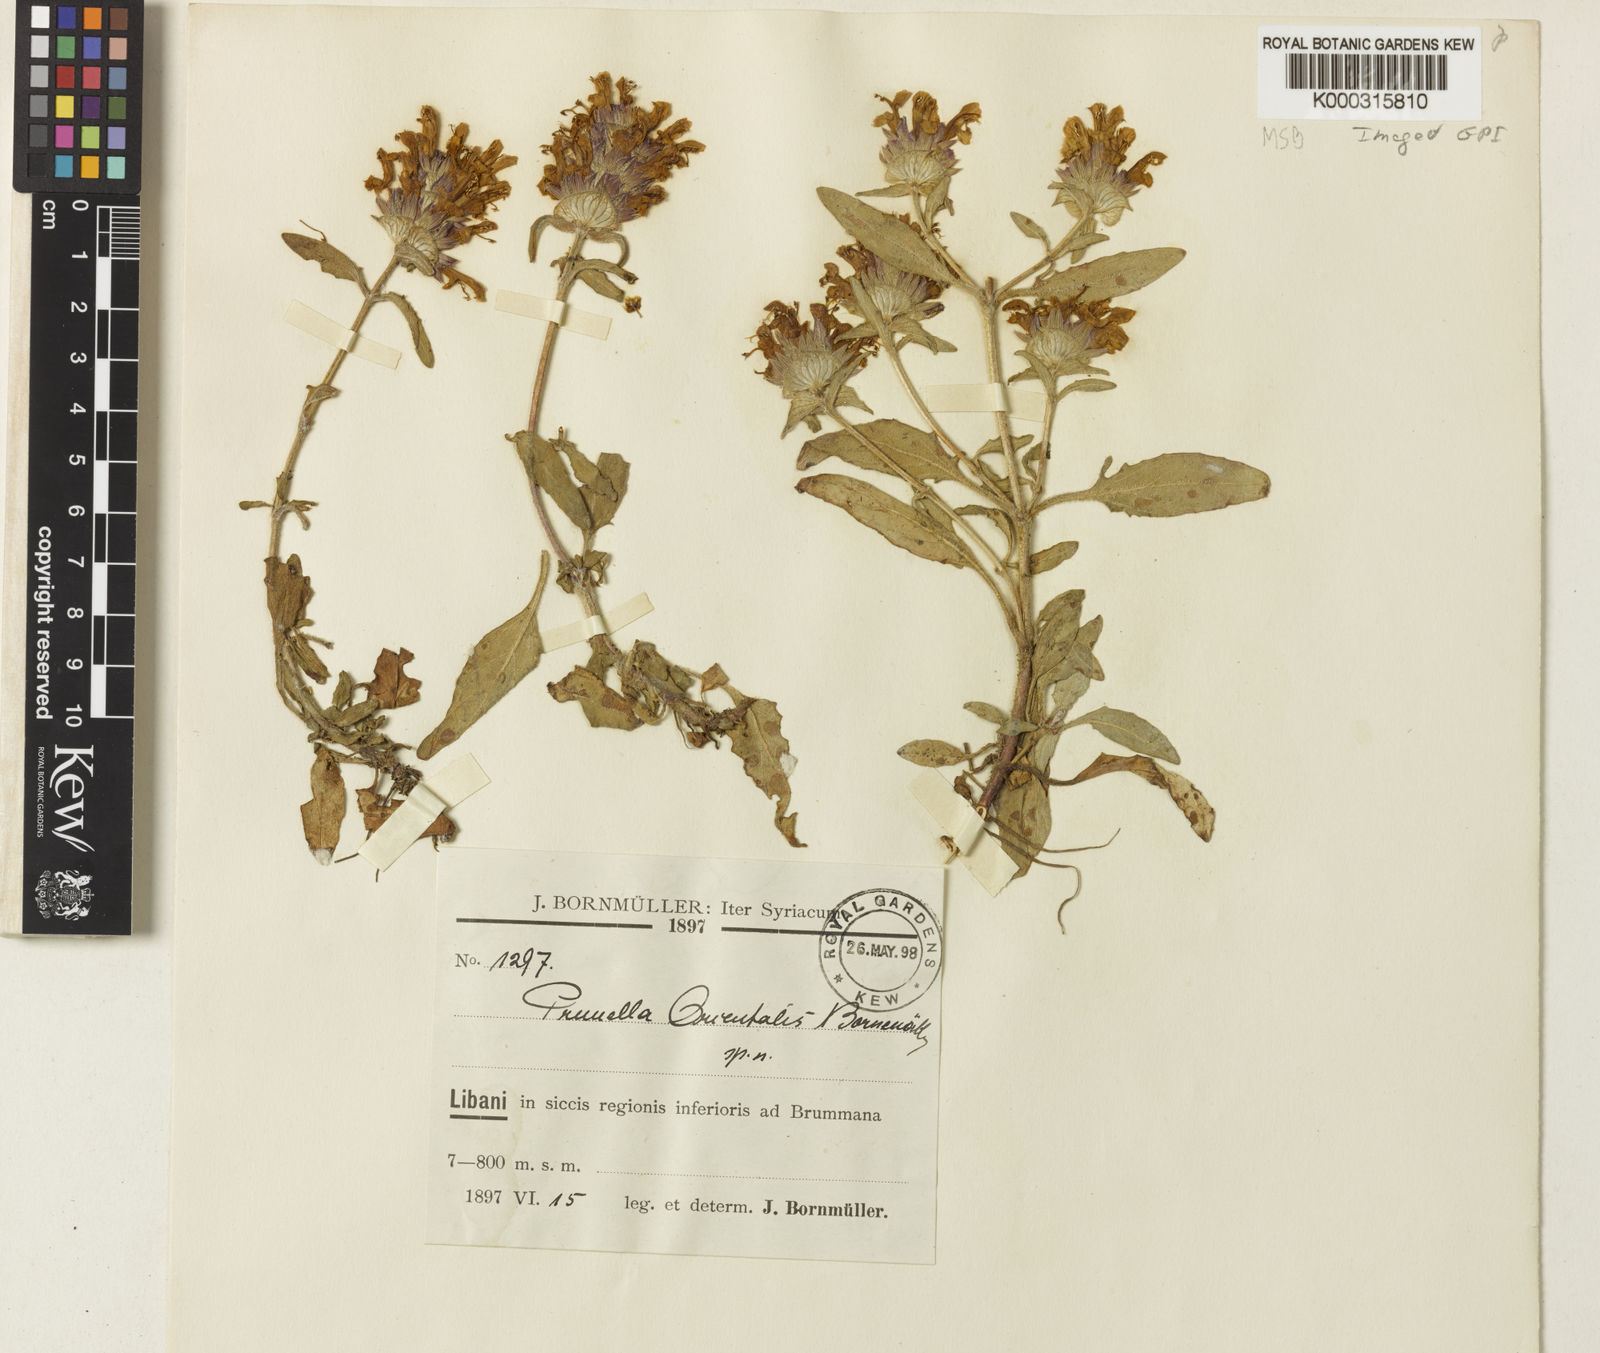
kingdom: Plantae
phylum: Tracheophyta
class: Magnoliopsida
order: Lamiales
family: Lamiaceae
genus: Prunella
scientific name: Prunella orientalis
